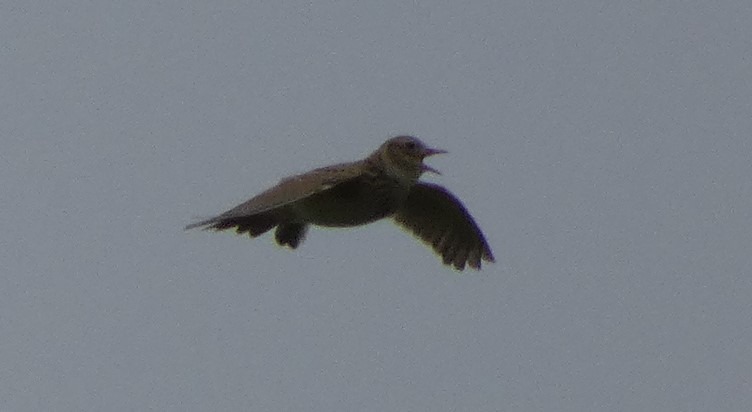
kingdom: Animalia
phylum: Chordata
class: Aves
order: Passeriformes
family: Alaudidae
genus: Alauda
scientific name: Alauda arvensis
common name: Sanglærke
